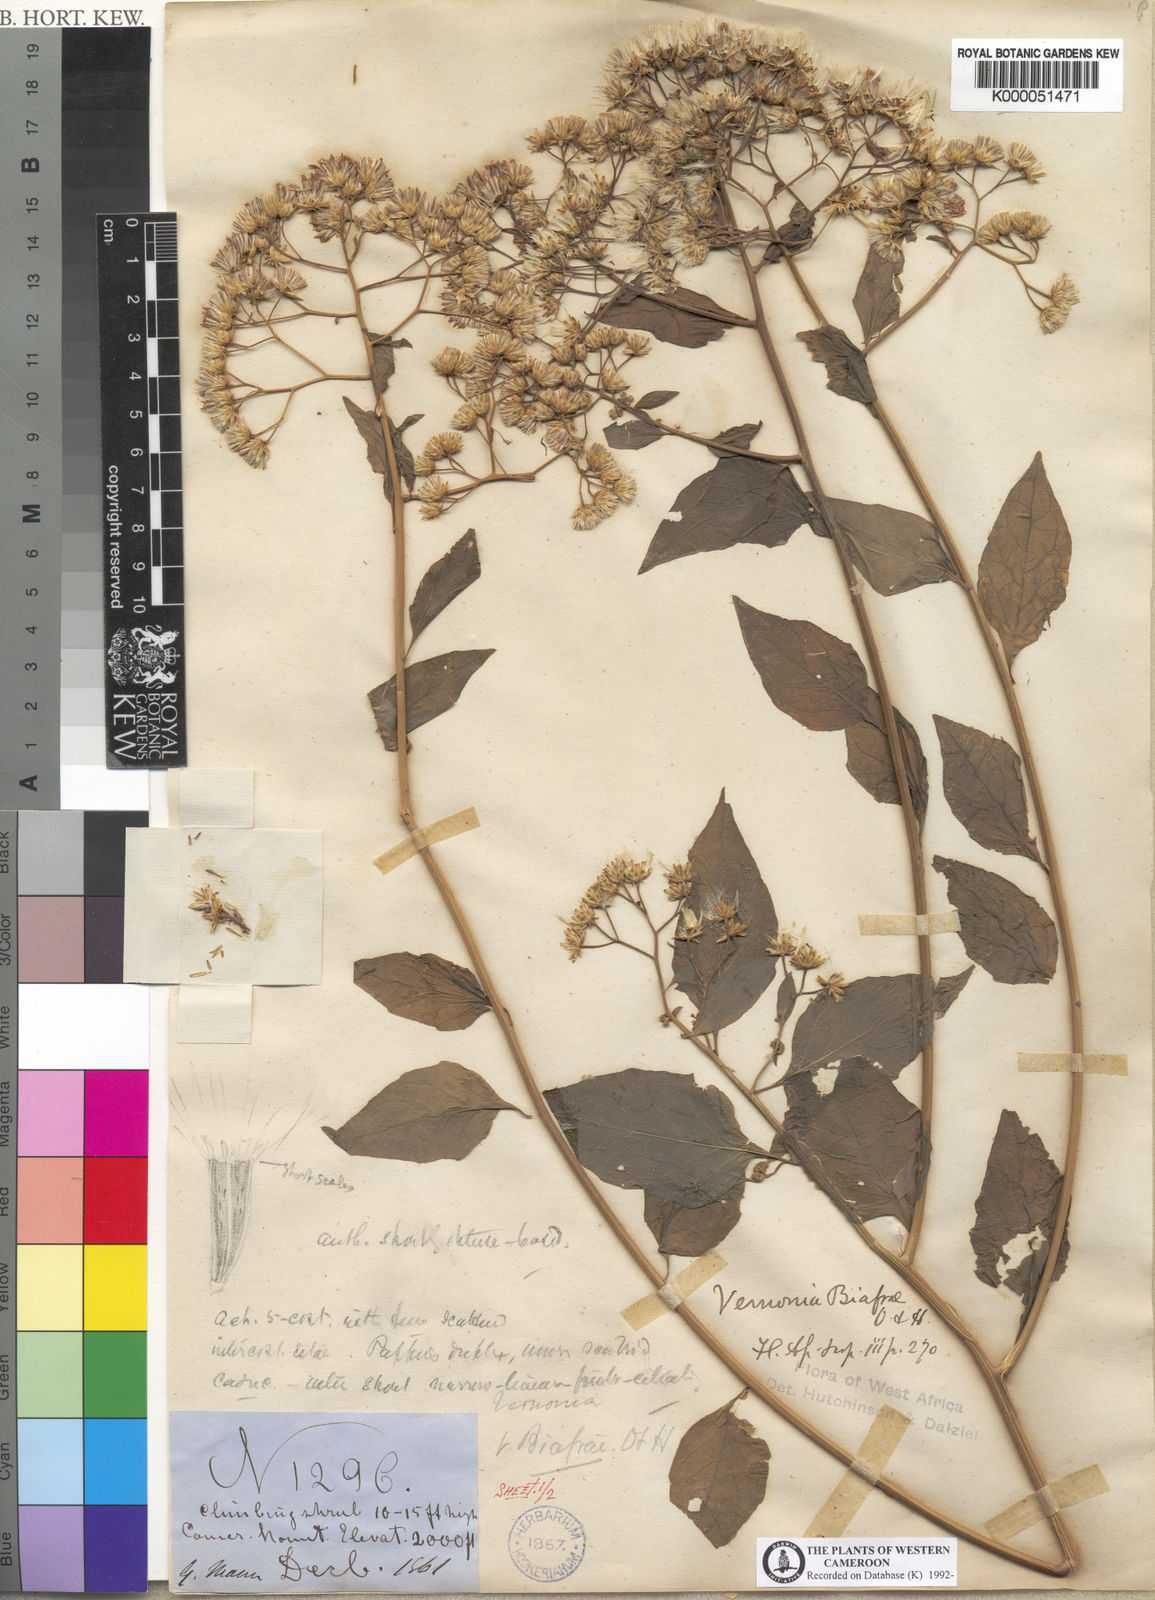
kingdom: Plantae
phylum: Tracheophyta
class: Magnoliopsida
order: Asterales
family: Asteraceae
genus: Distephanus
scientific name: Distephanus biafrae
